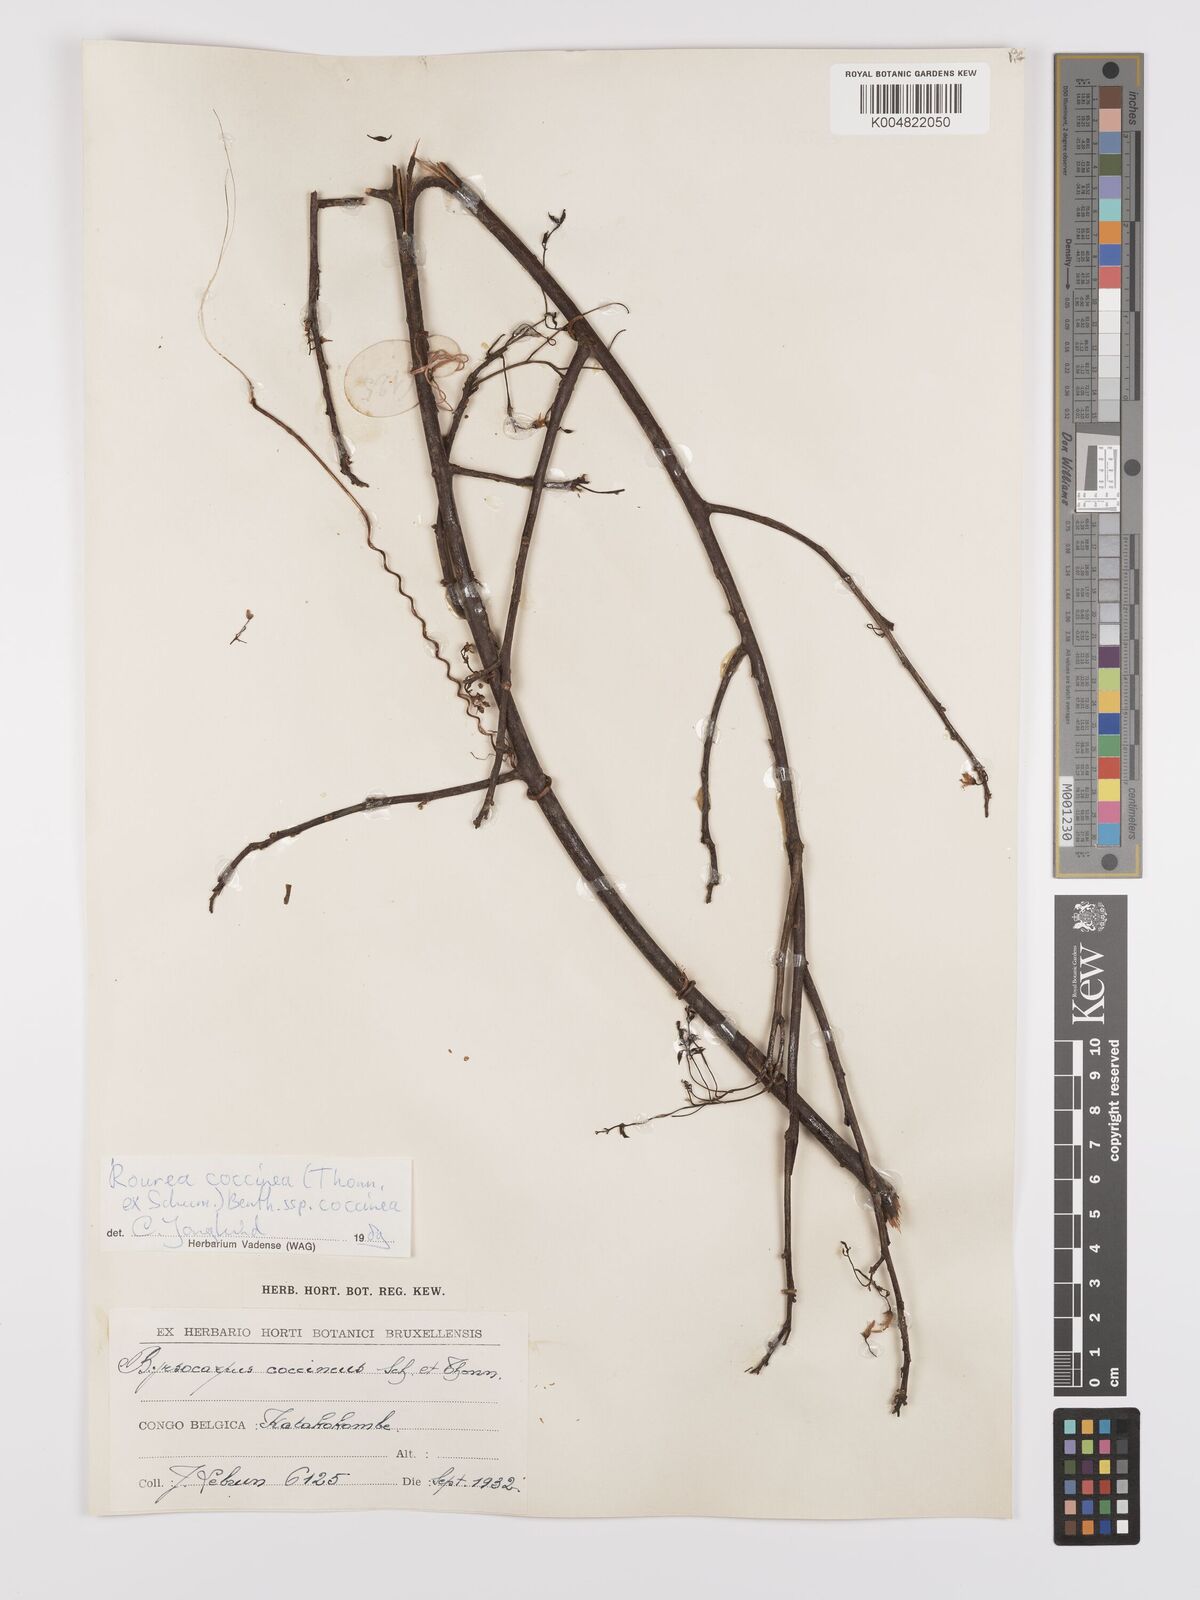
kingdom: Plantae
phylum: Tracheophyta
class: Magnoliopsida
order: Oxalidales
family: Connaraceae
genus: Rourea
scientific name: Rourea coccinea
